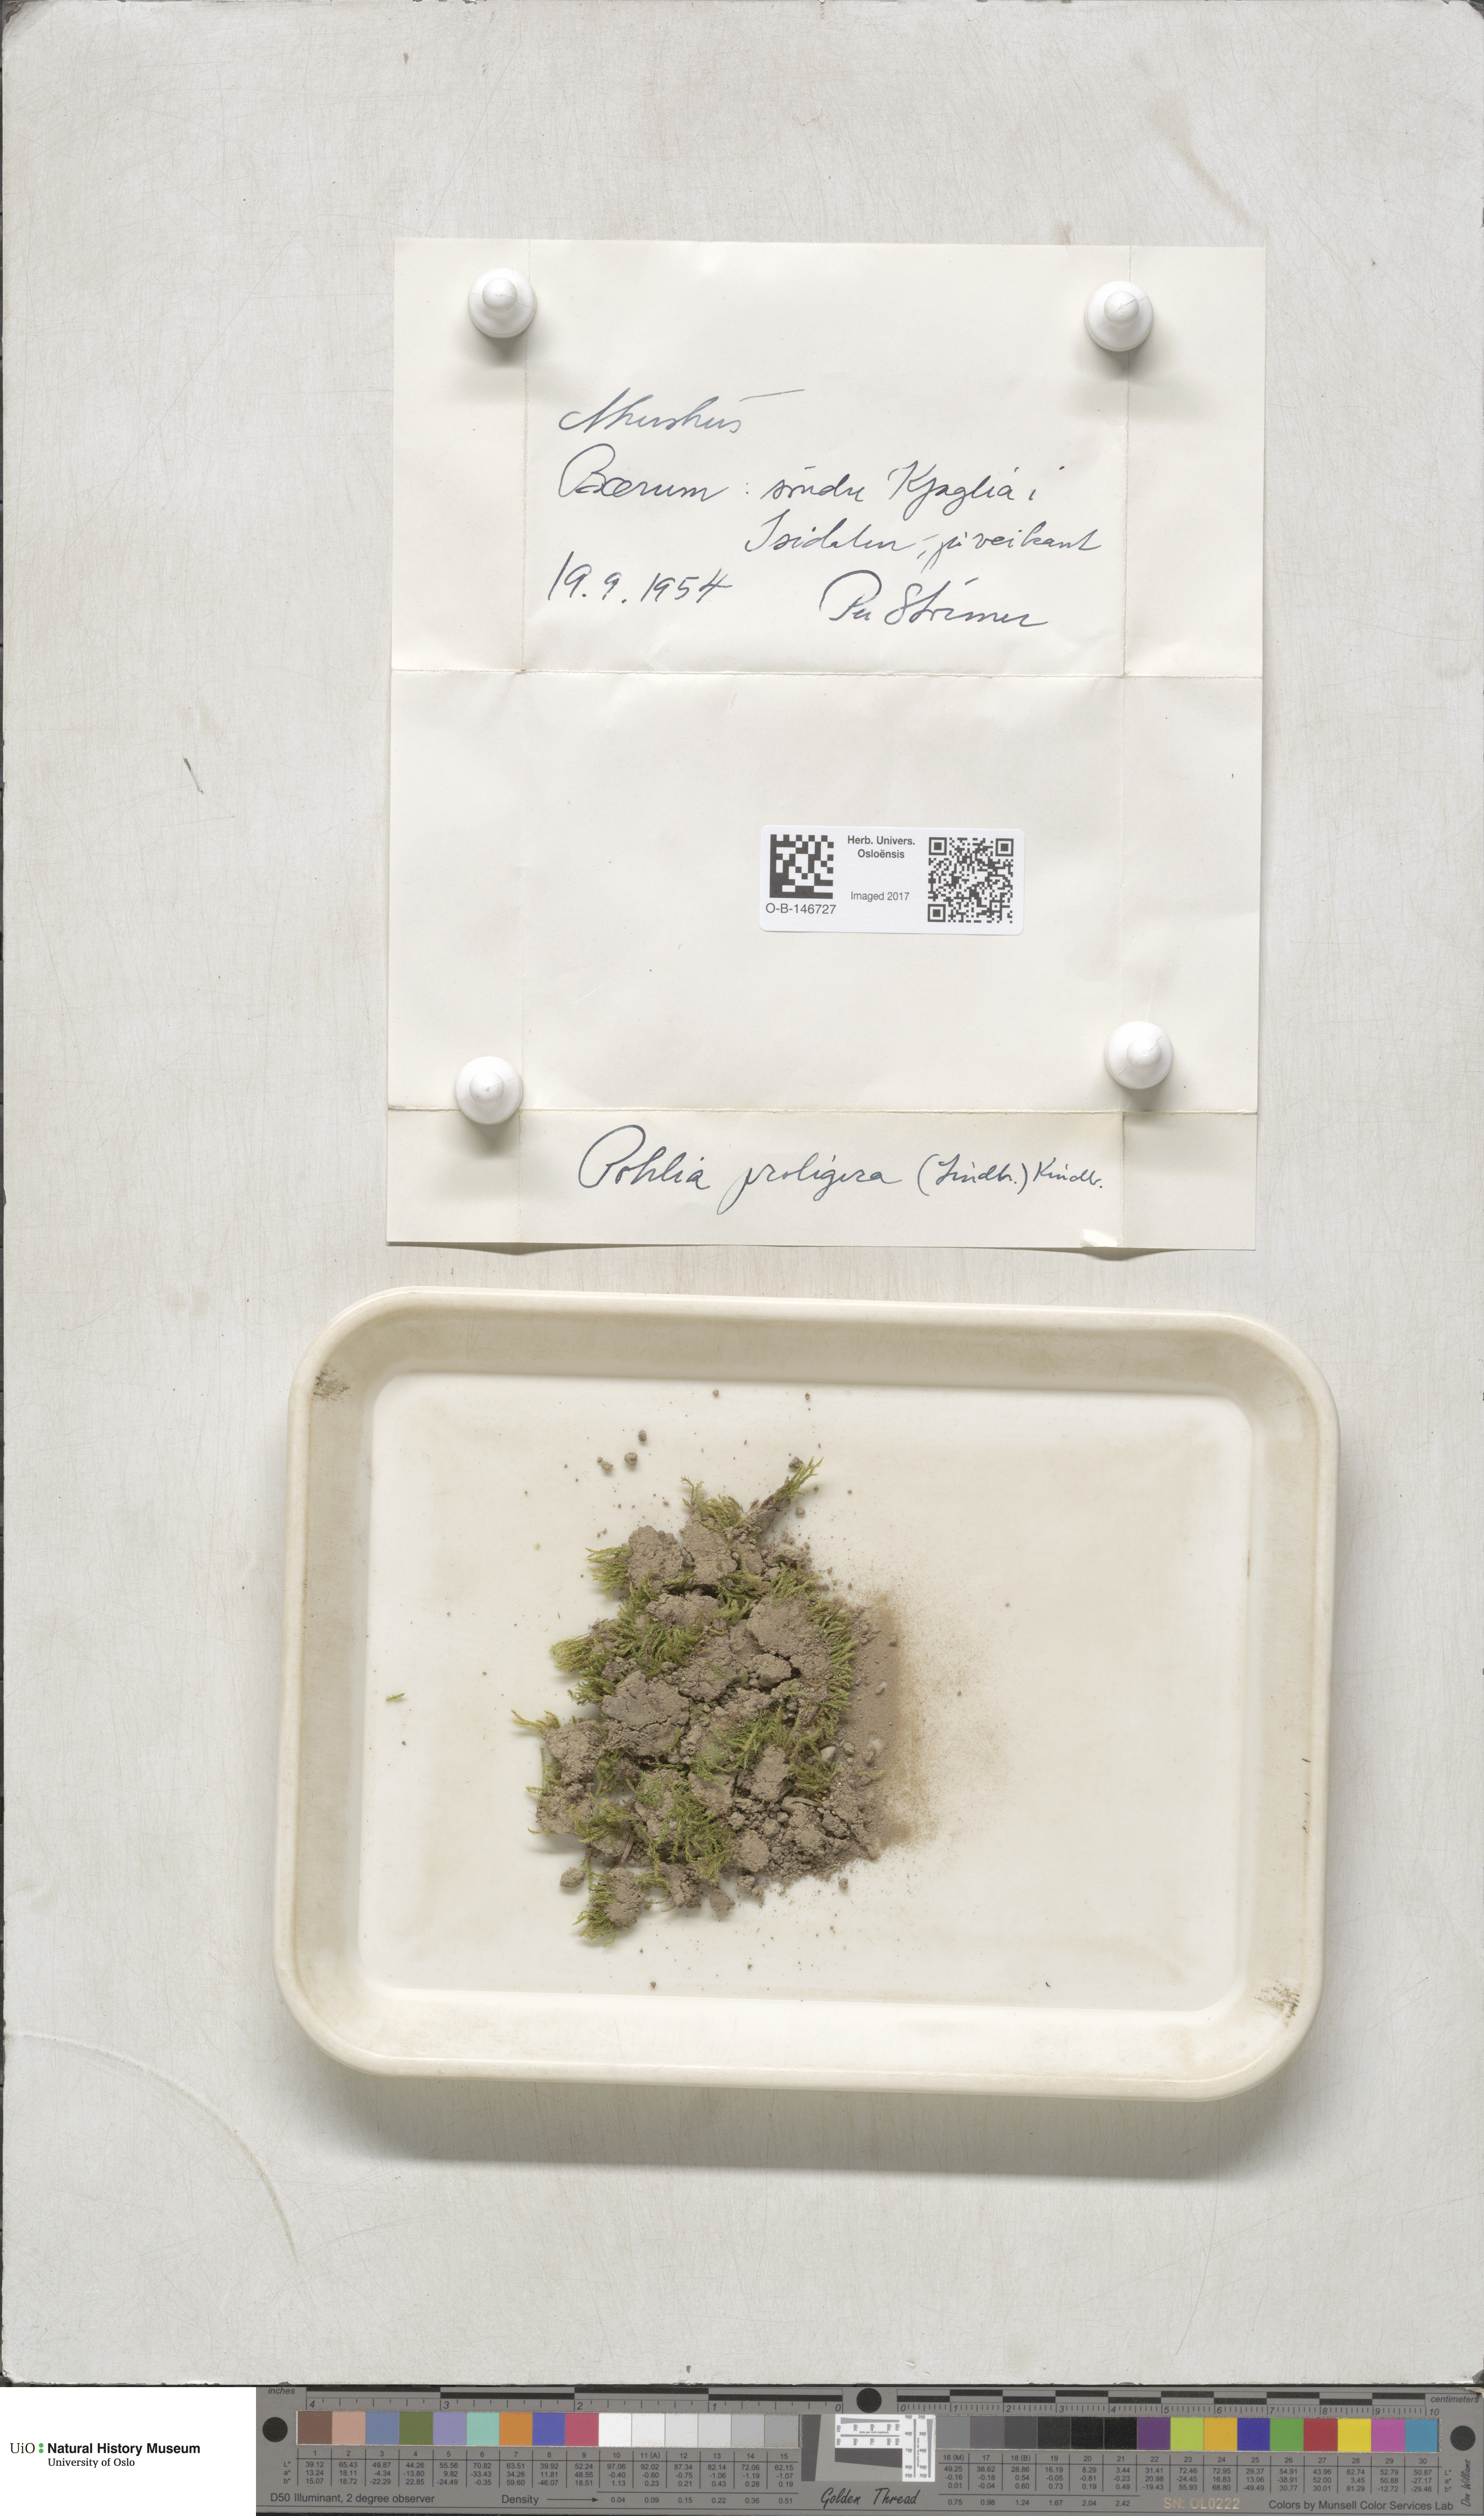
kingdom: Plantae
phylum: Bryophyta
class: Bryopsida
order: Bryales
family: Mniaceae
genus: Pohlia
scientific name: Pohlia proligera
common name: Cottony nodding moss
